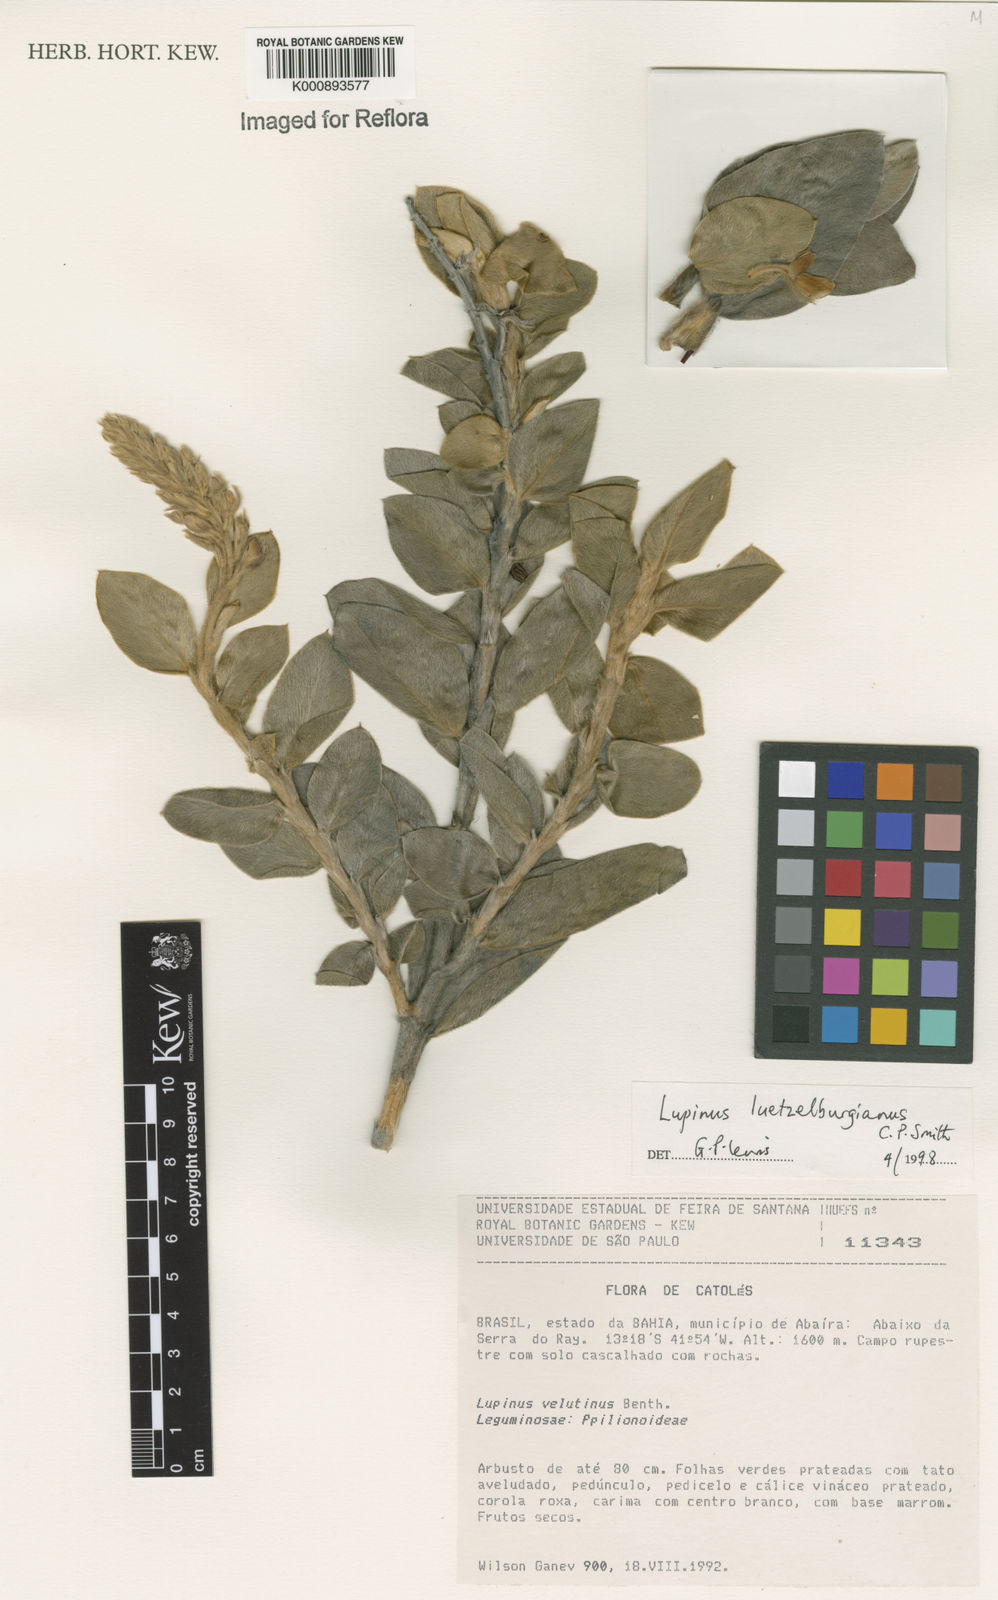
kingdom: Plantae
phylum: Tracheophyta
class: Magnoliopsida
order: Fabales
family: Fabaceae
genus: Lupinus
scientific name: Lupinus
